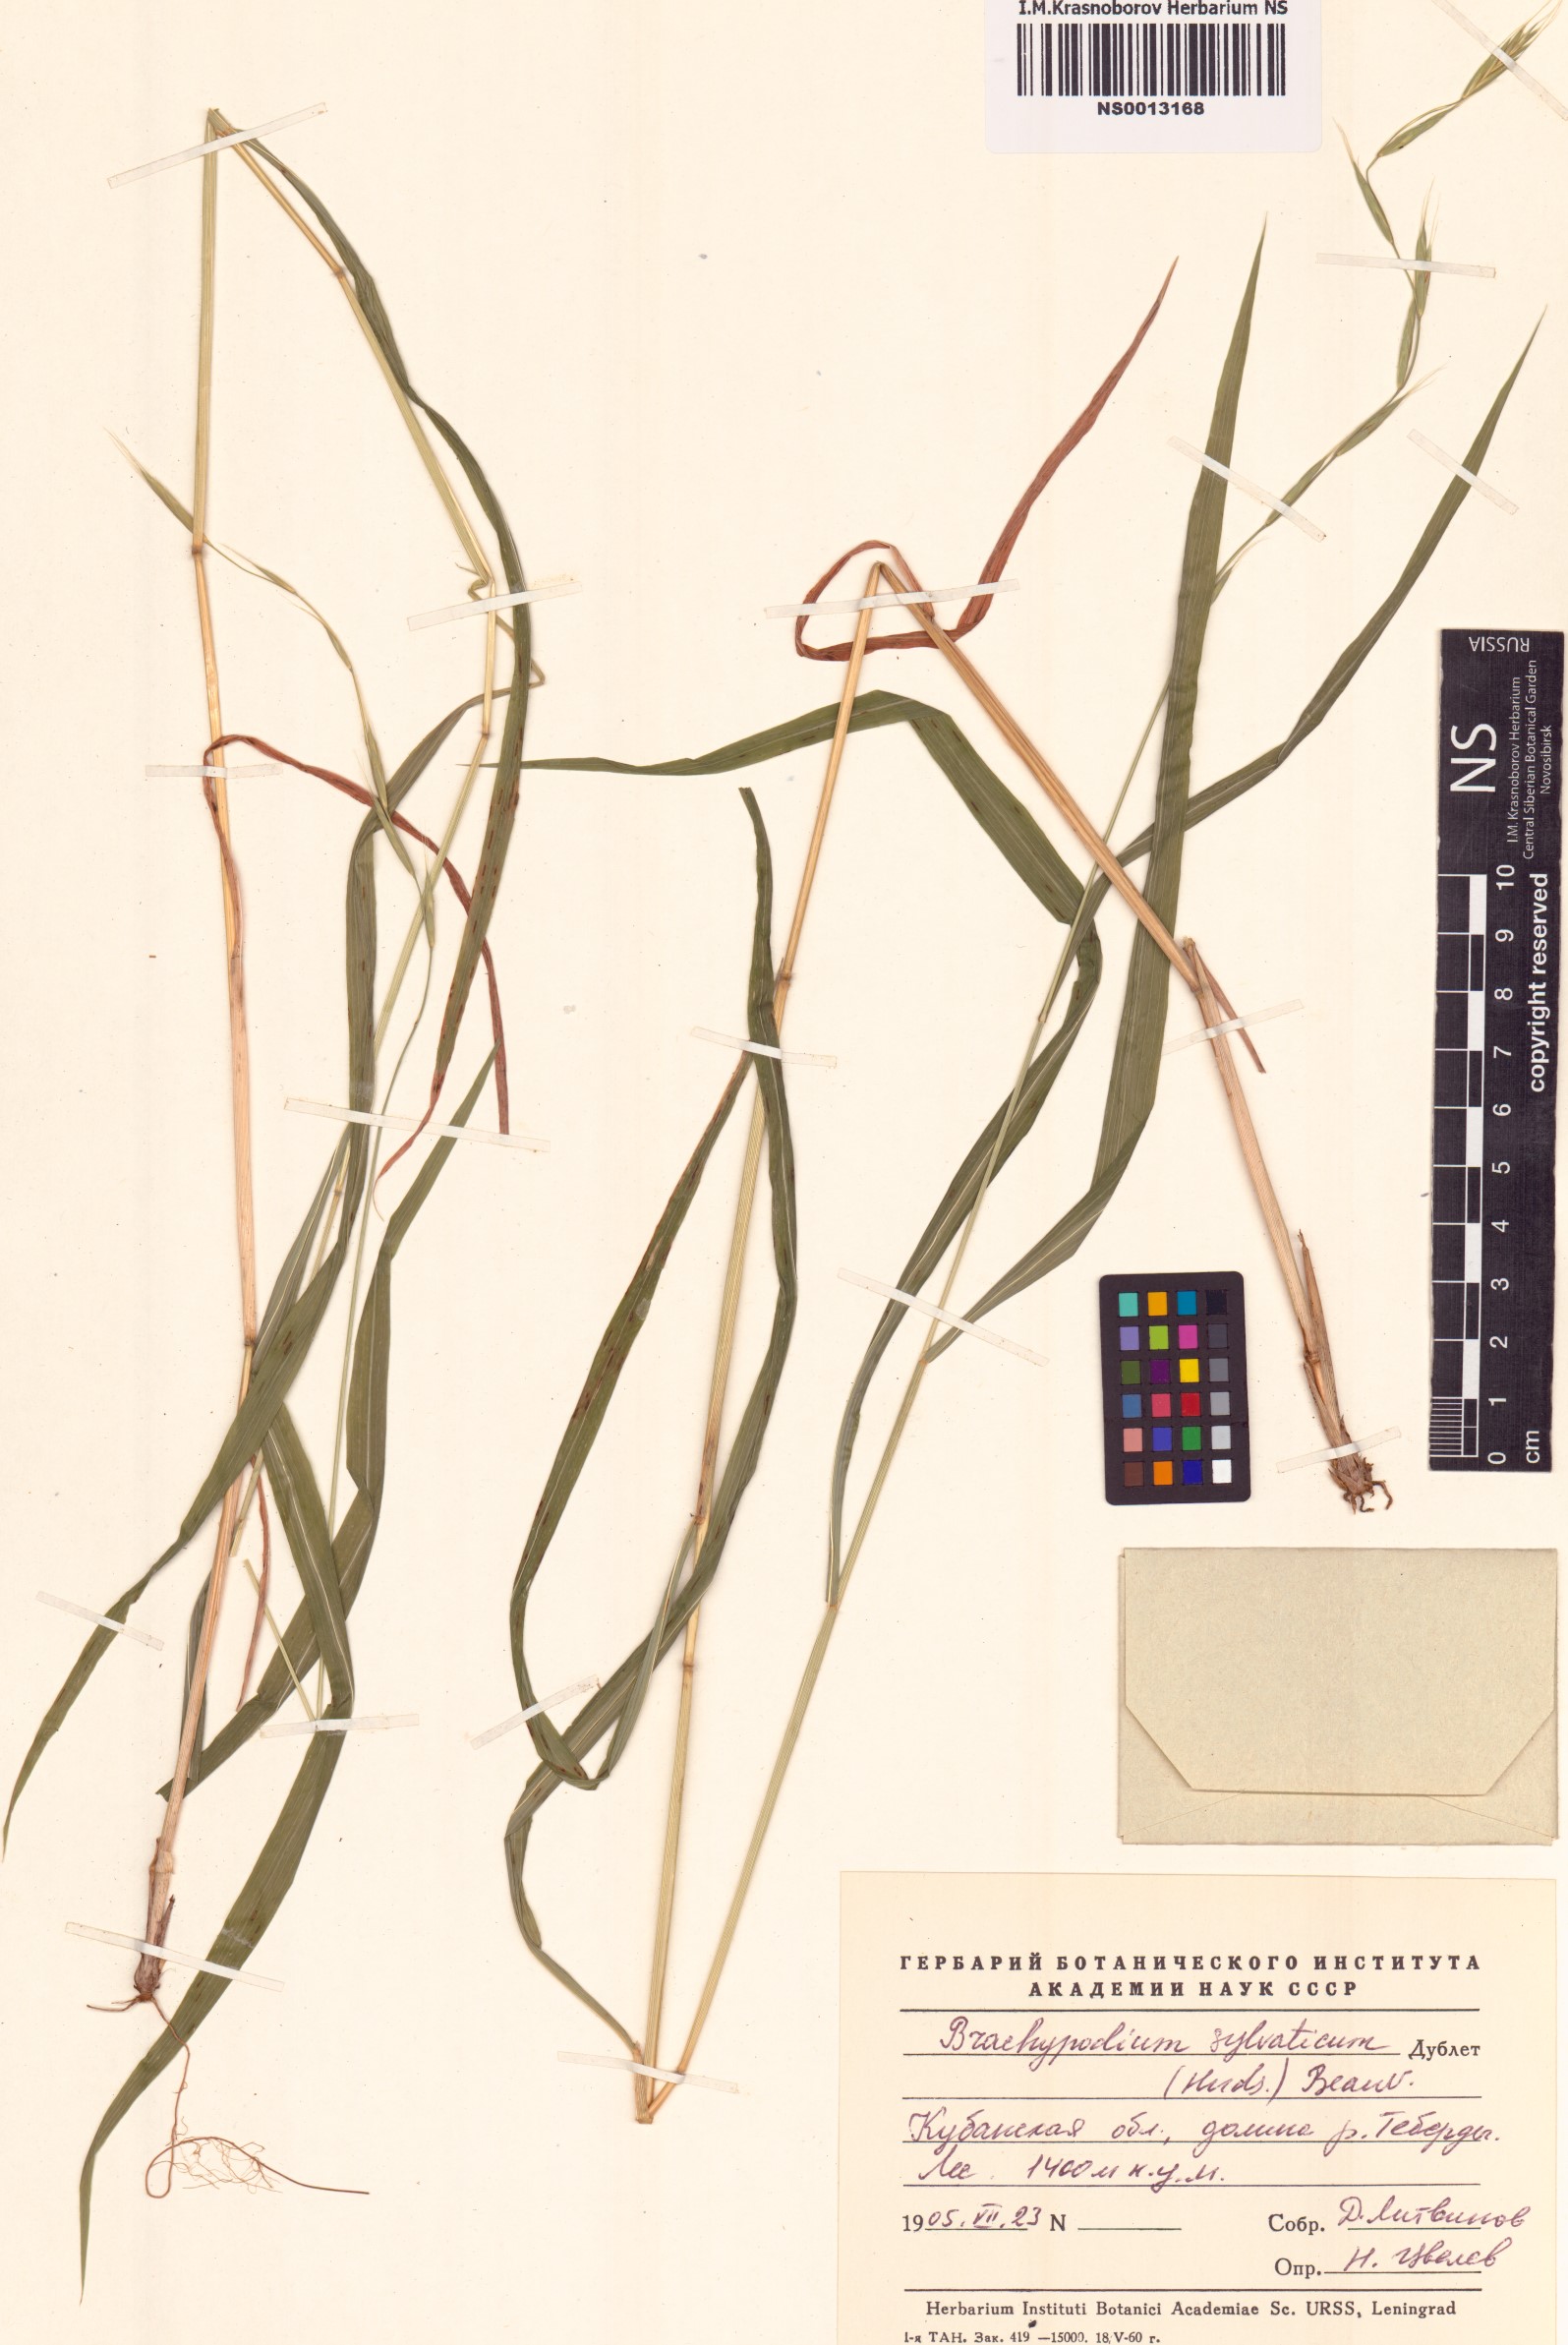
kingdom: Plantae
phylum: Tracheophyta
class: Liliopsida
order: Poales
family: Poaceae
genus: Brachypodium
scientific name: Brachypodium sylvaticum
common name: False-brome
